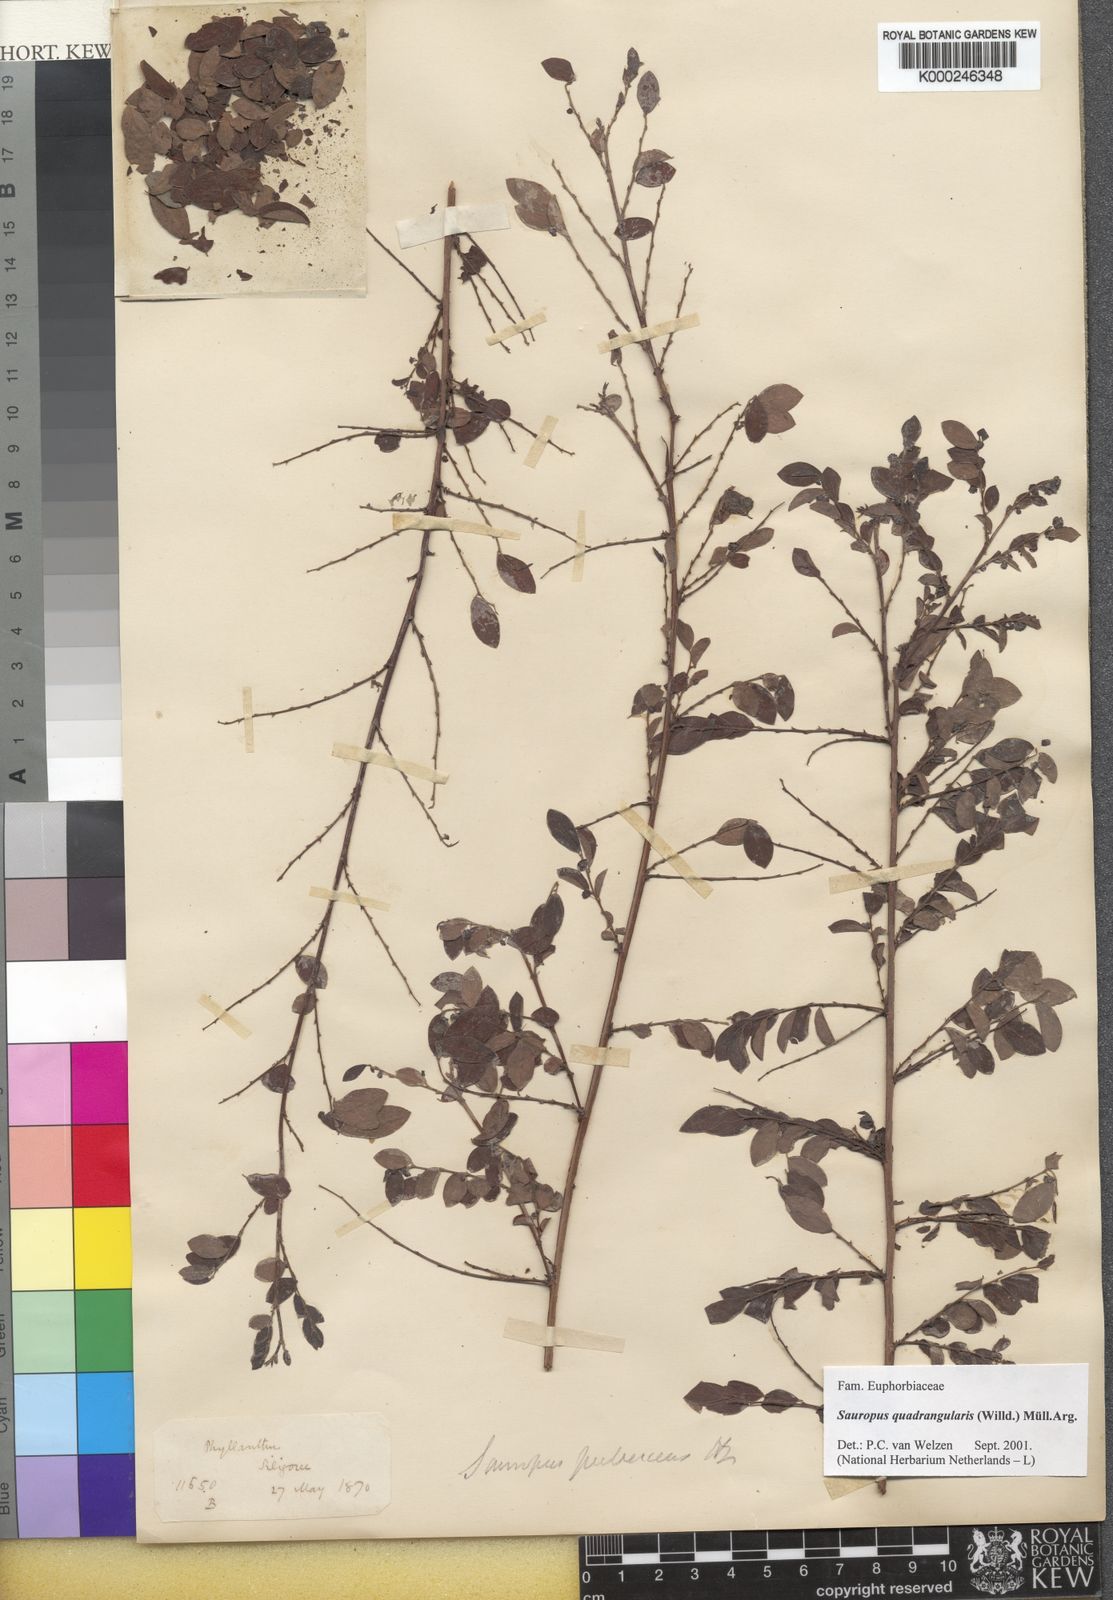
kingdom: Animalia
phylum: Chordata
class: Amphibia
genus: Sauropus
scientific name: Sauropus
